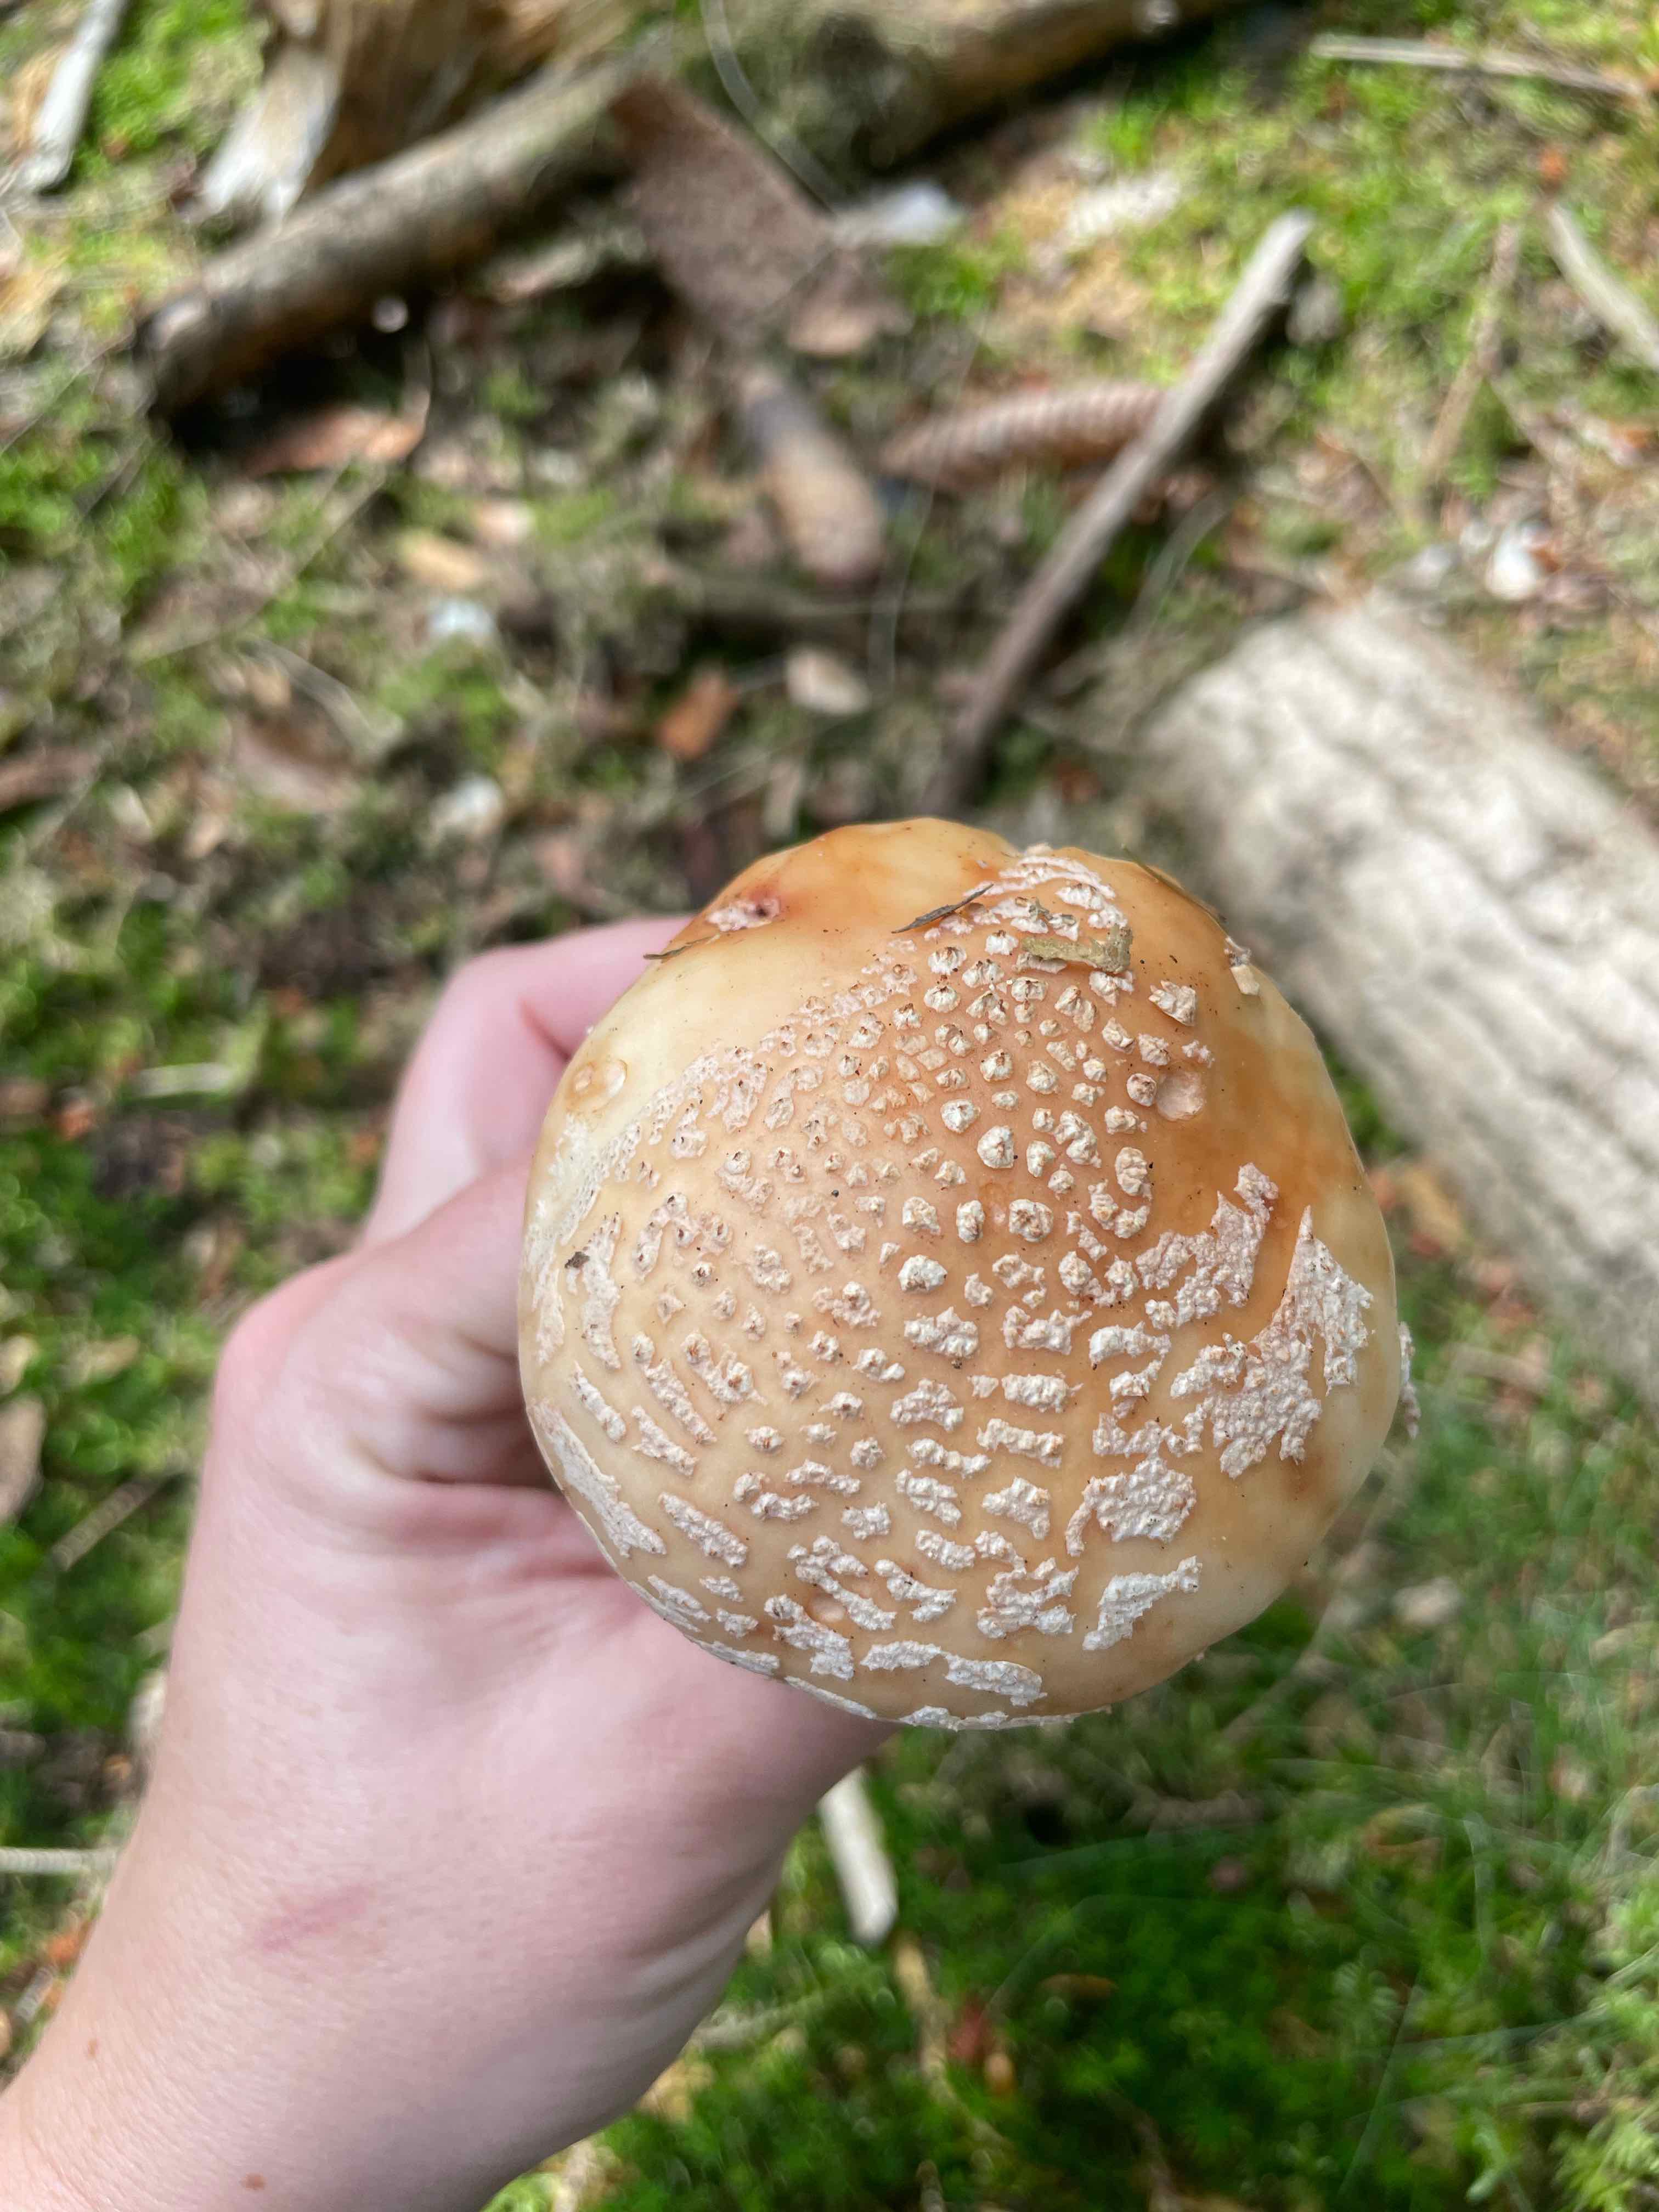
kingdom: Fungi
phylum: Basidiomycota
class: Agaricomycetes
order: Agaricales
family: Amanitaceae
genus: Amanita
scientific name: Amanita rubescens
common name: rødmende fluesvamp
